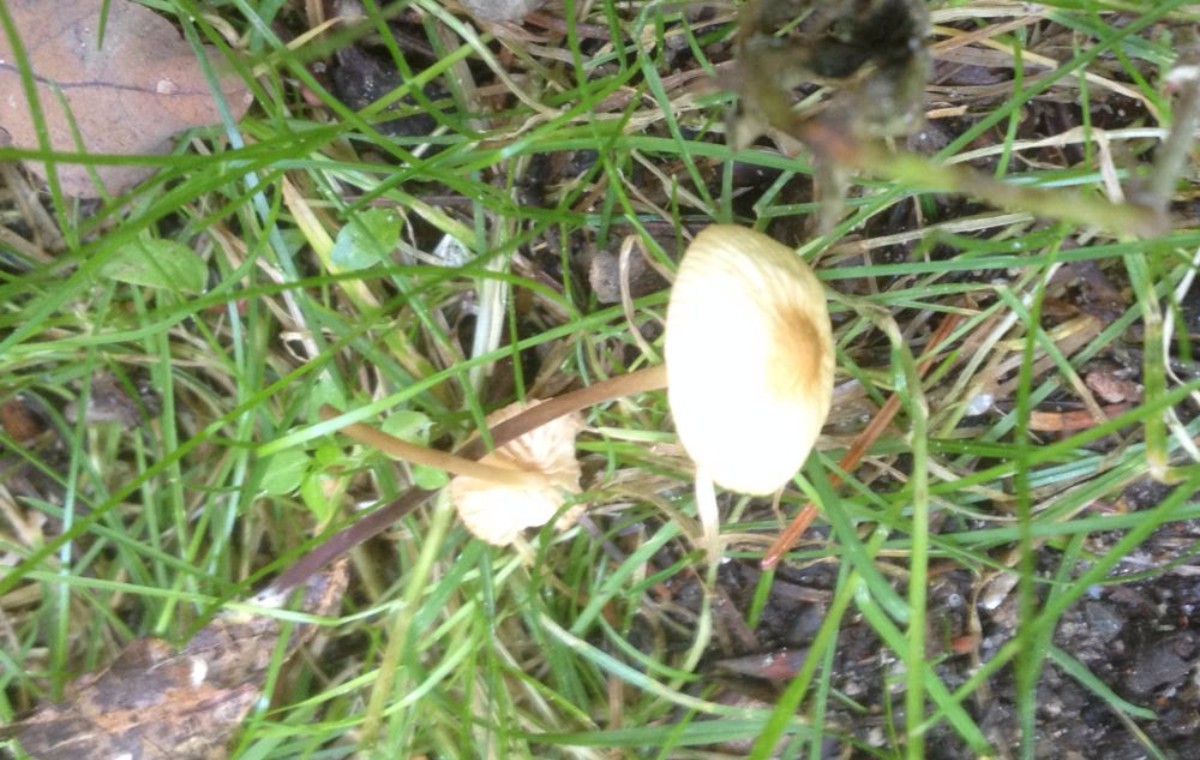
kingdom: Fungi
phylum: Basidiomycota
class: Agaricomycetes
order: Agaricales
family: Marasmiaceae
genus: Marasmius
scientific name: Marasmius torquescens
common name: filtfodet bruskhat
